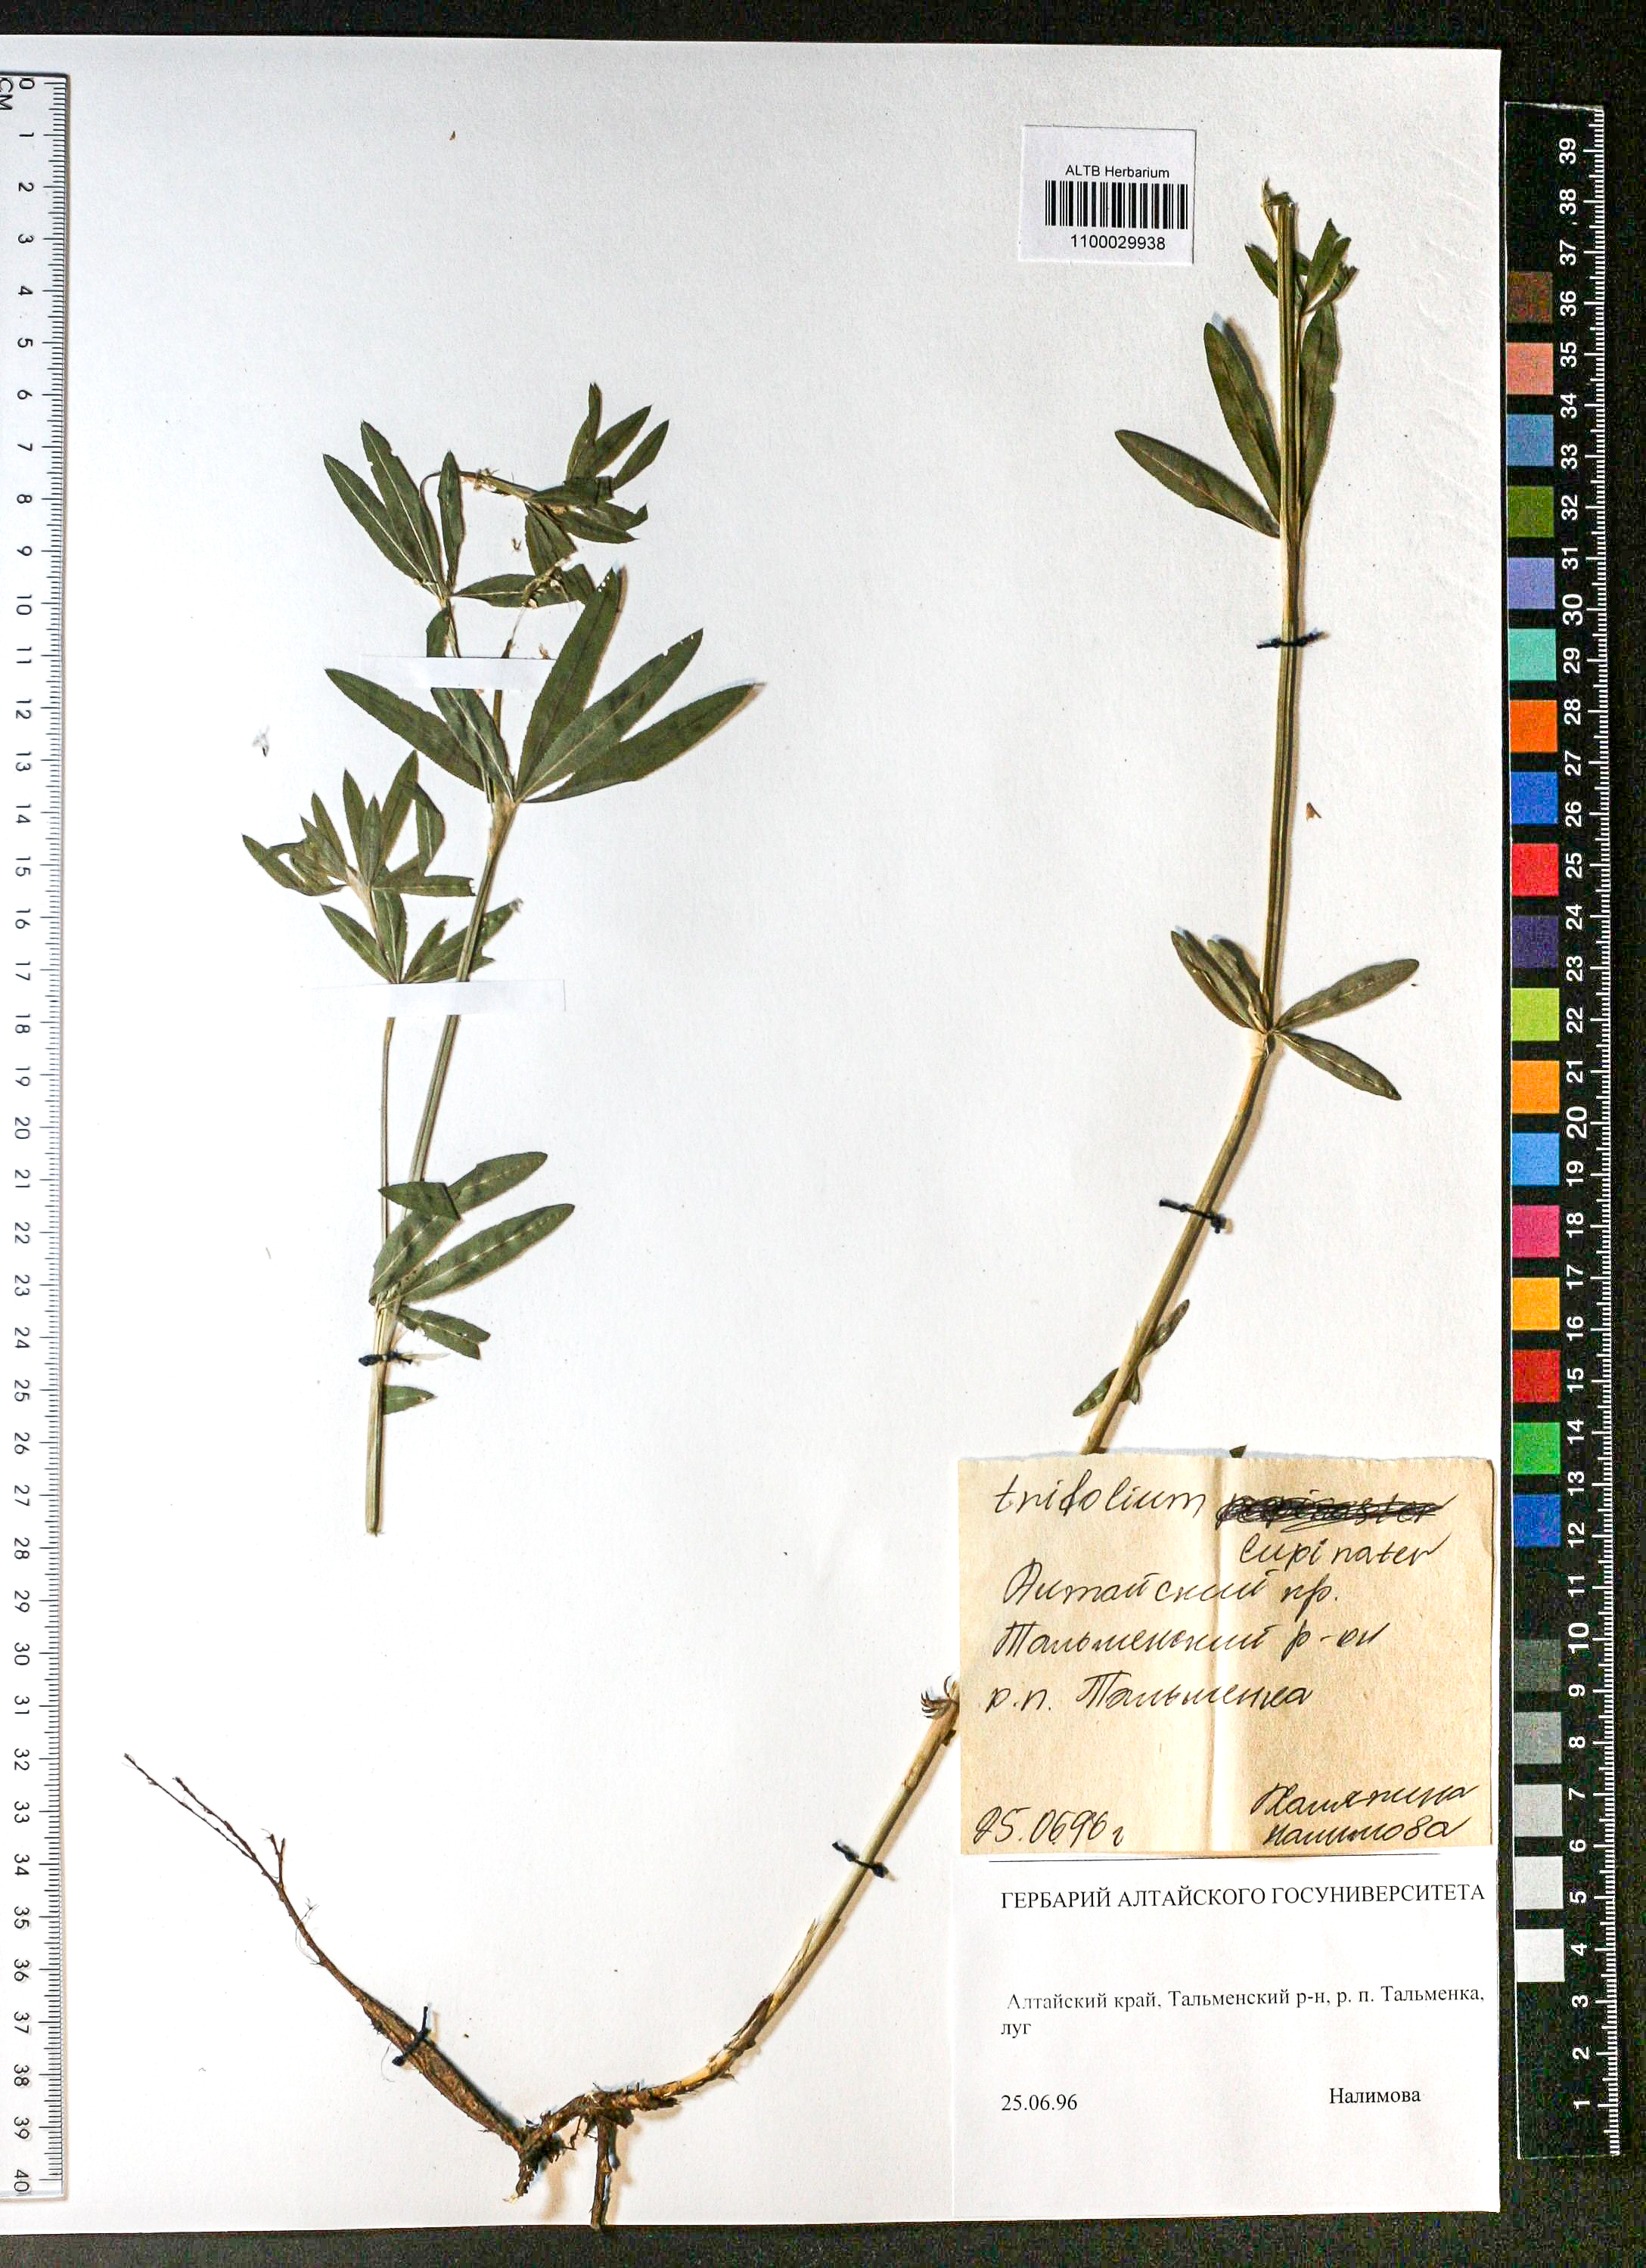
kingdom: Plantae
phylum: Tracheophyta
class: Magnoliopsida
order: Fabales
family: Fabaceae
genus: Trifolium
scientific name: Trifolium lupinaster
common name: Lupine clover
